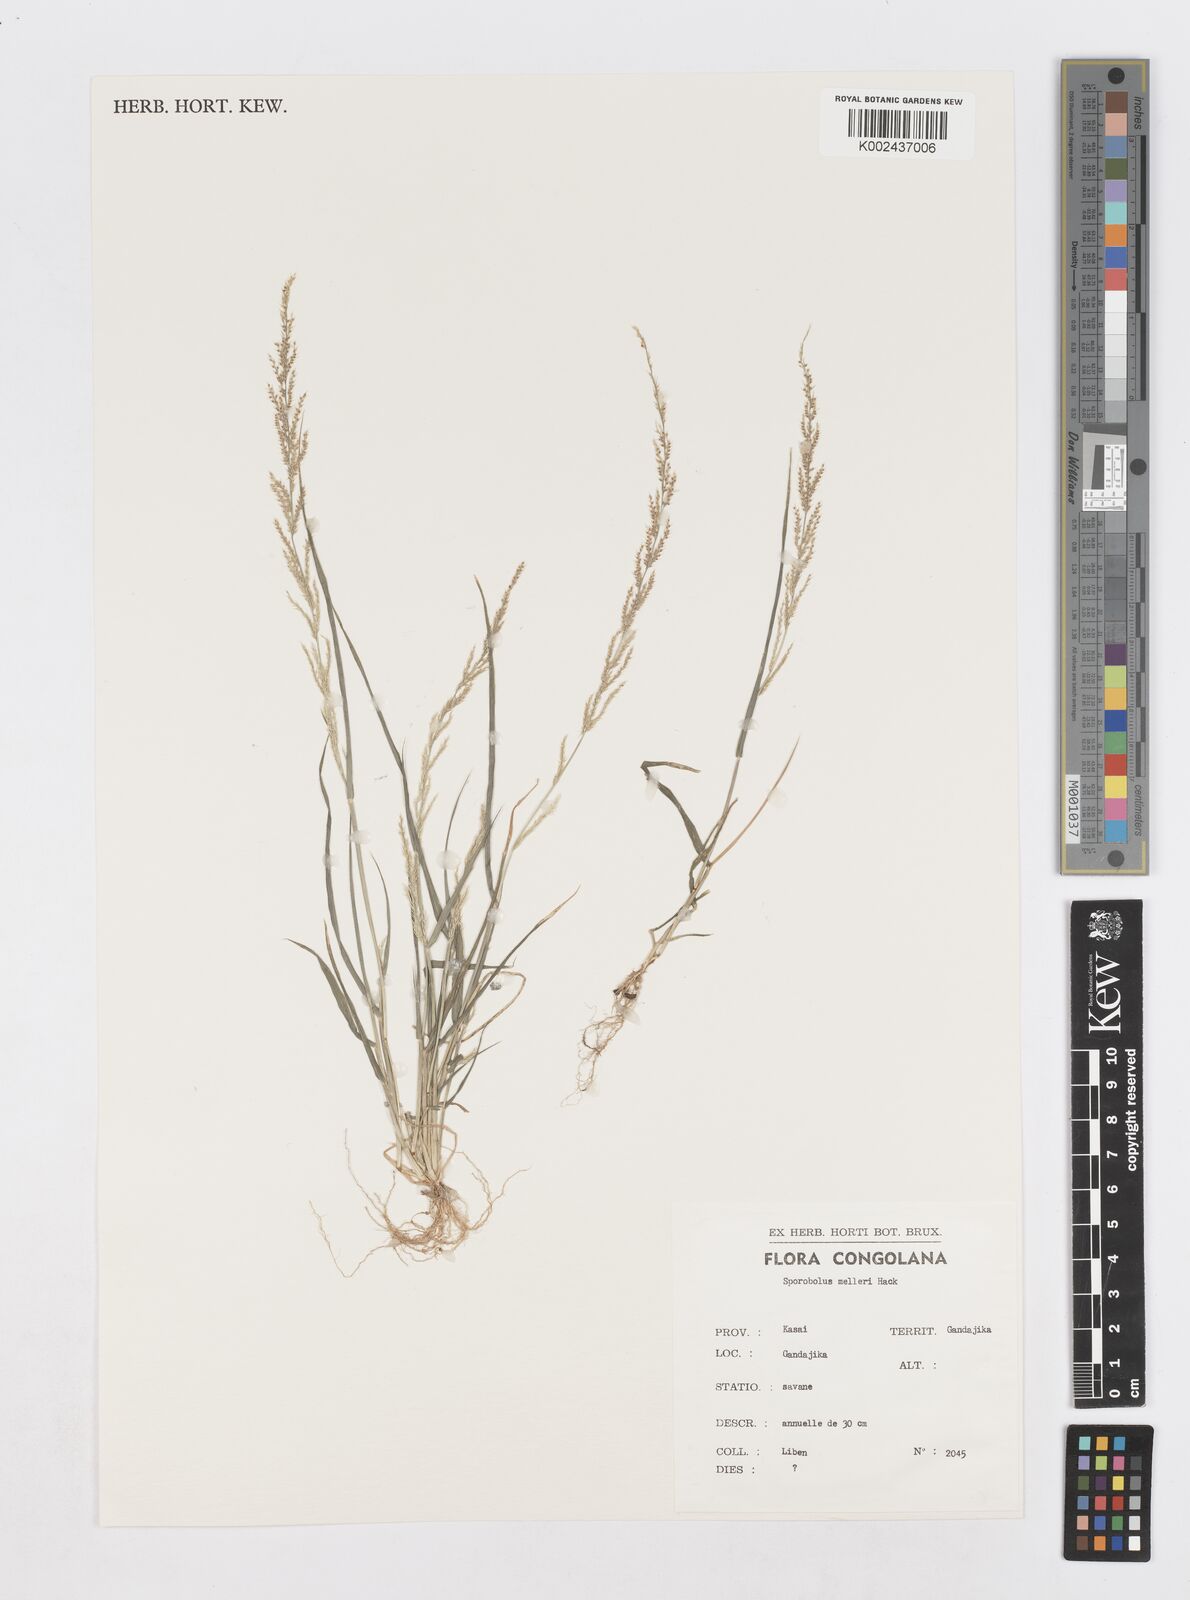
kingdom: Plantae
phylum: Tracheophyta
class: Liliopsida
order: Poales
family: Poaceae
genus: Sporobolus
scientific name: Sporobolus molleri
